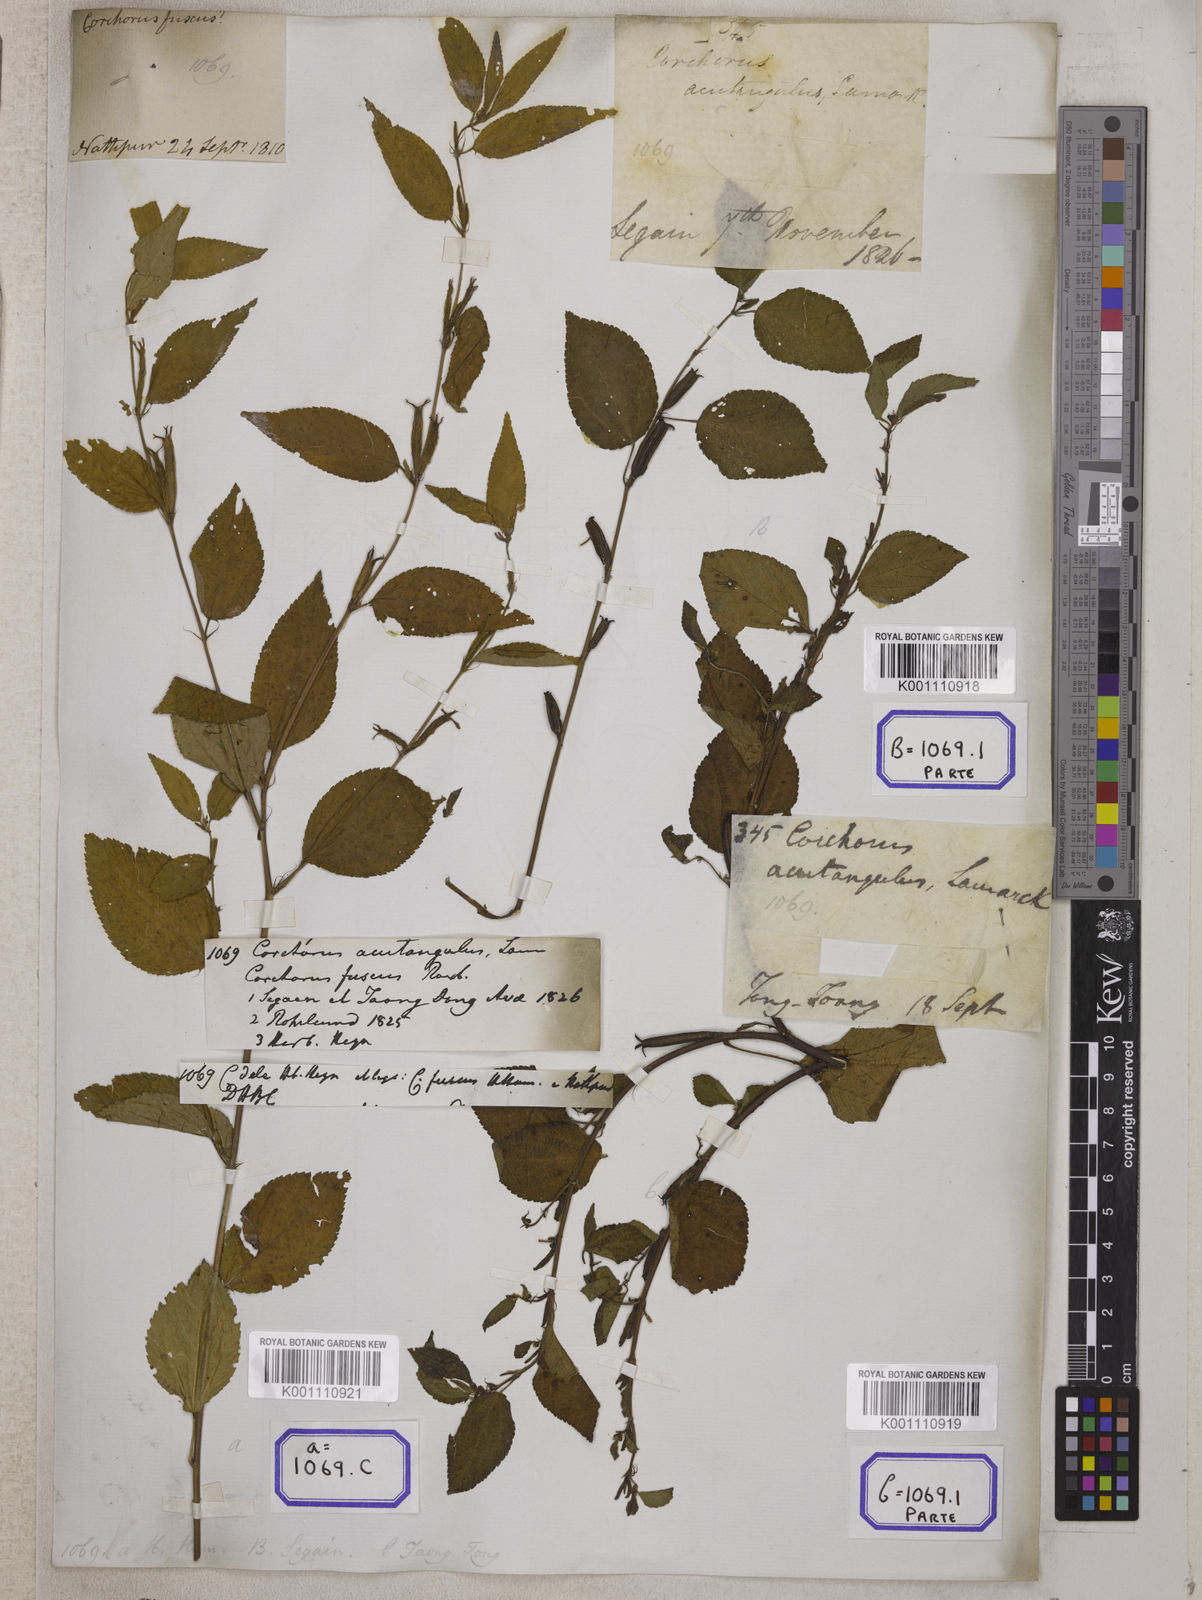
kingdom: Plantae
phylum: Tracheophyta
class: Magnoliopsida
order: Malvales
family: Malvaceae
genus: Corchorus
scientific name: Corchorus aestuans
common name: Jute
